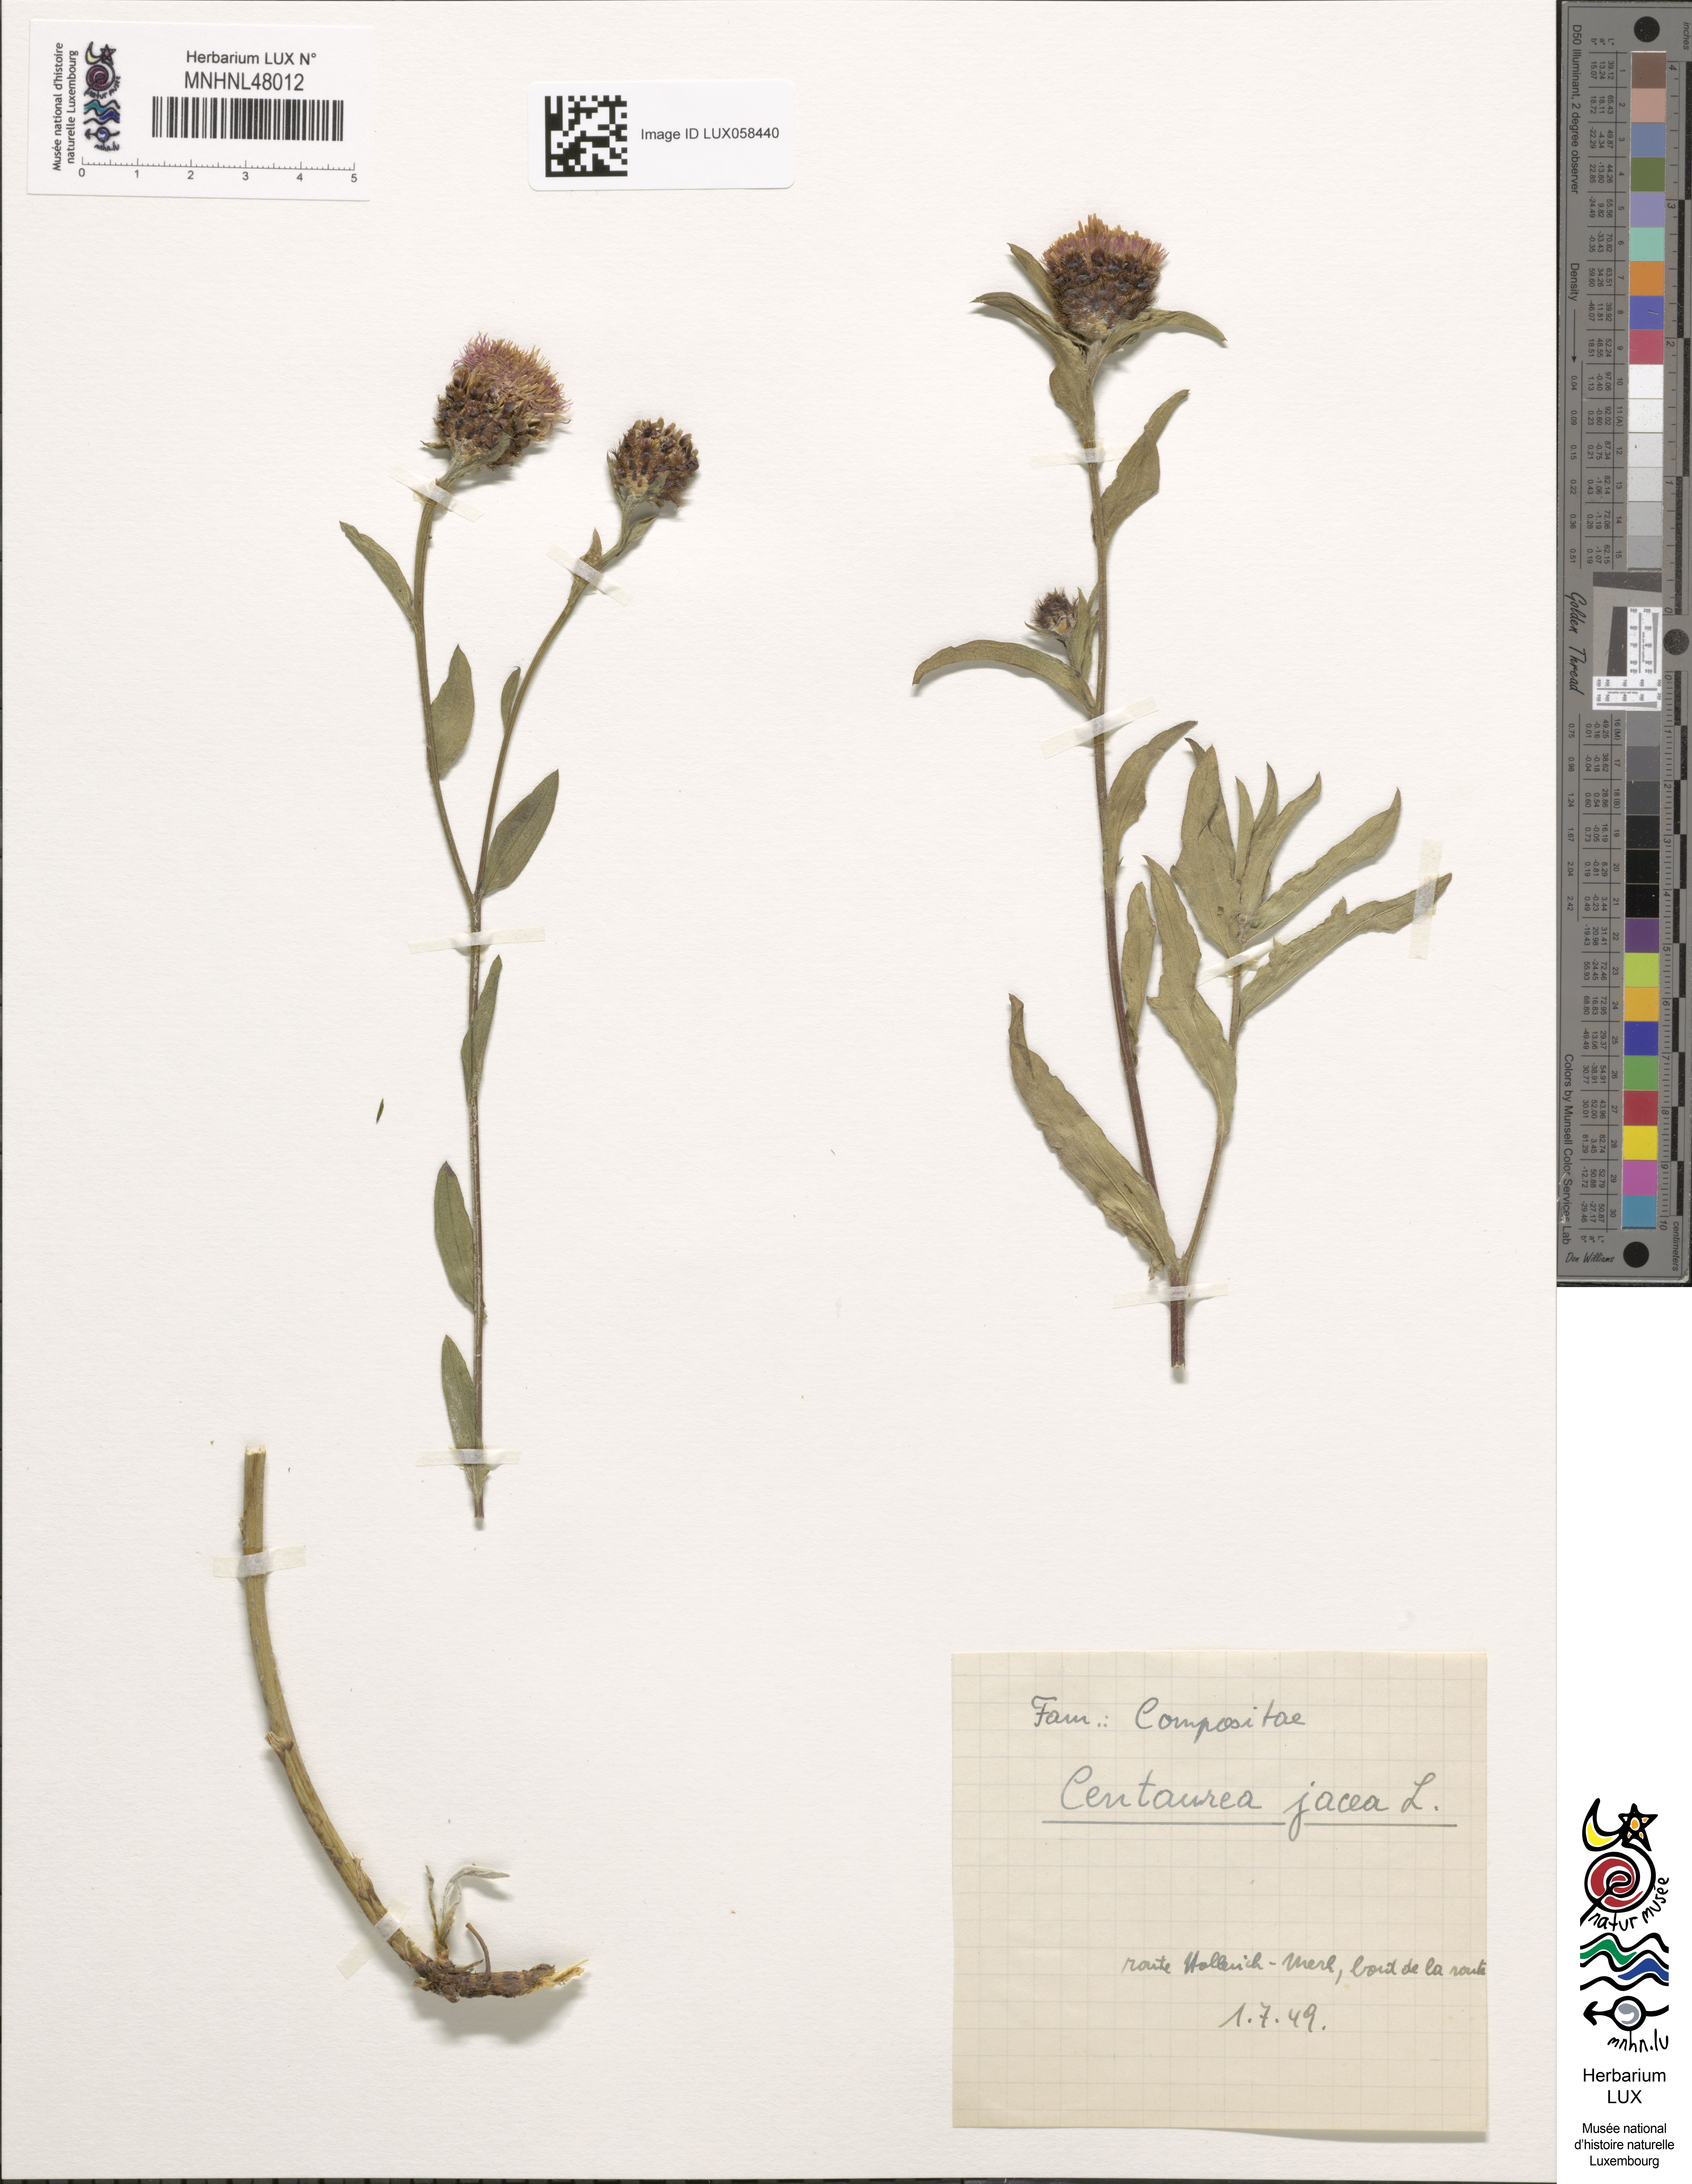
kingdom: Plantae
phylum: Tracheophyta
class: Magnoliopsida
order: Asterales
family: Asteraceae
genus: Centaurea
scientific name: Centaurea jacea
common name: Brown knapweed
